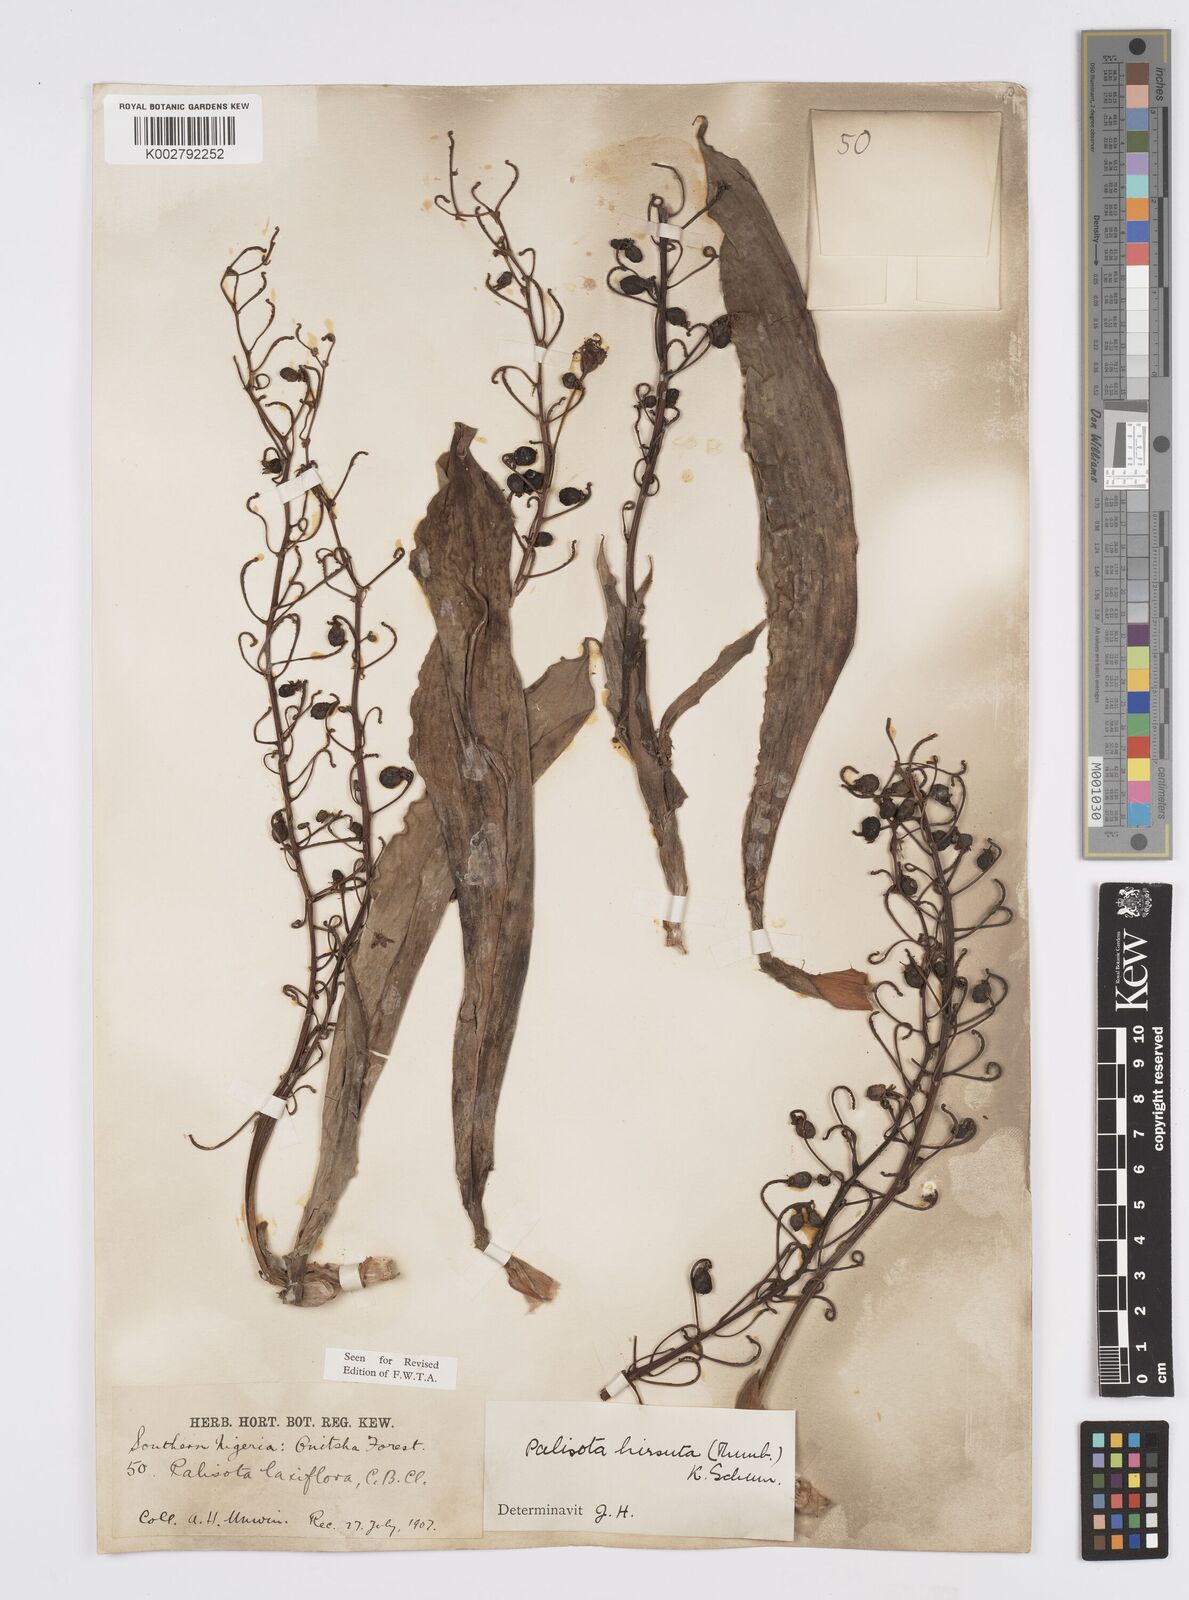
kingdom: Plantae
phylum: Tracheophyta
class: Liliopsida
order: Commelinales
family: Commelinaceae
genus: Palisota
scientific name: Palisota hirsuta
